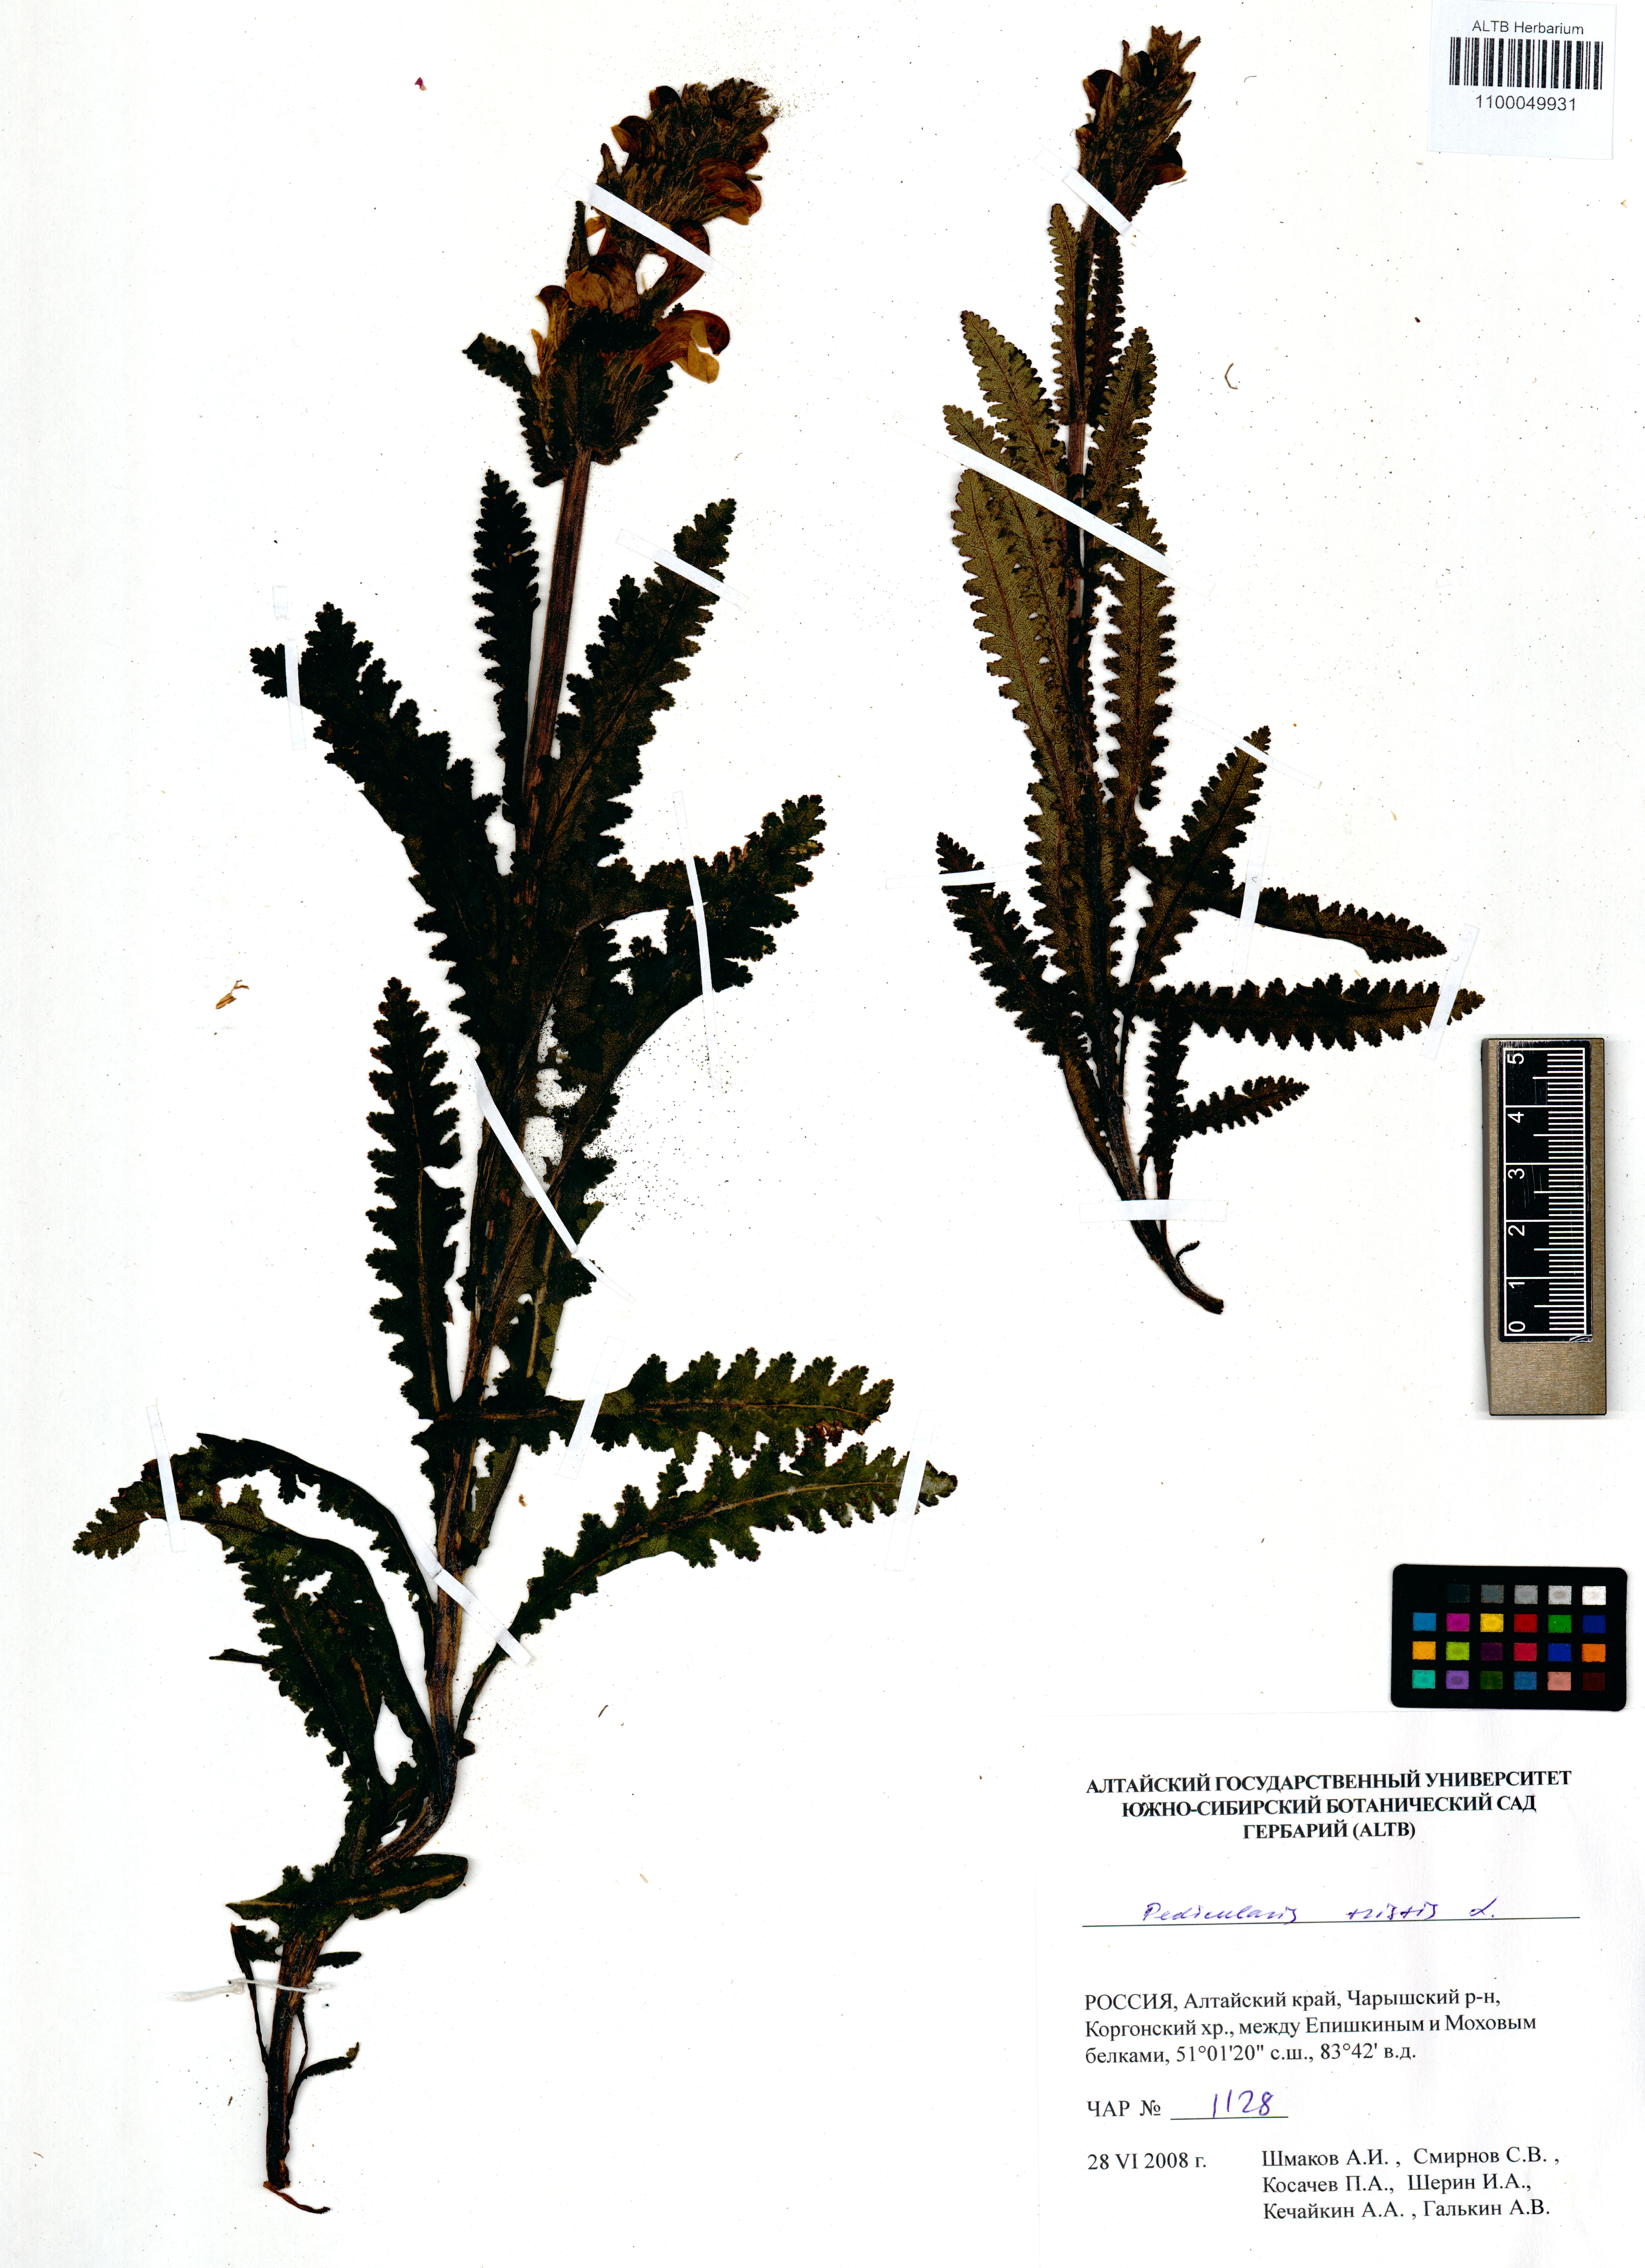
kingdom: Plantae
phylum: Tracheophyta
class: Magnoliopsida
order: Lamiales
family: Orobanchaceae
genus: Pedicularis
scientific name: Pedicularis tristis
